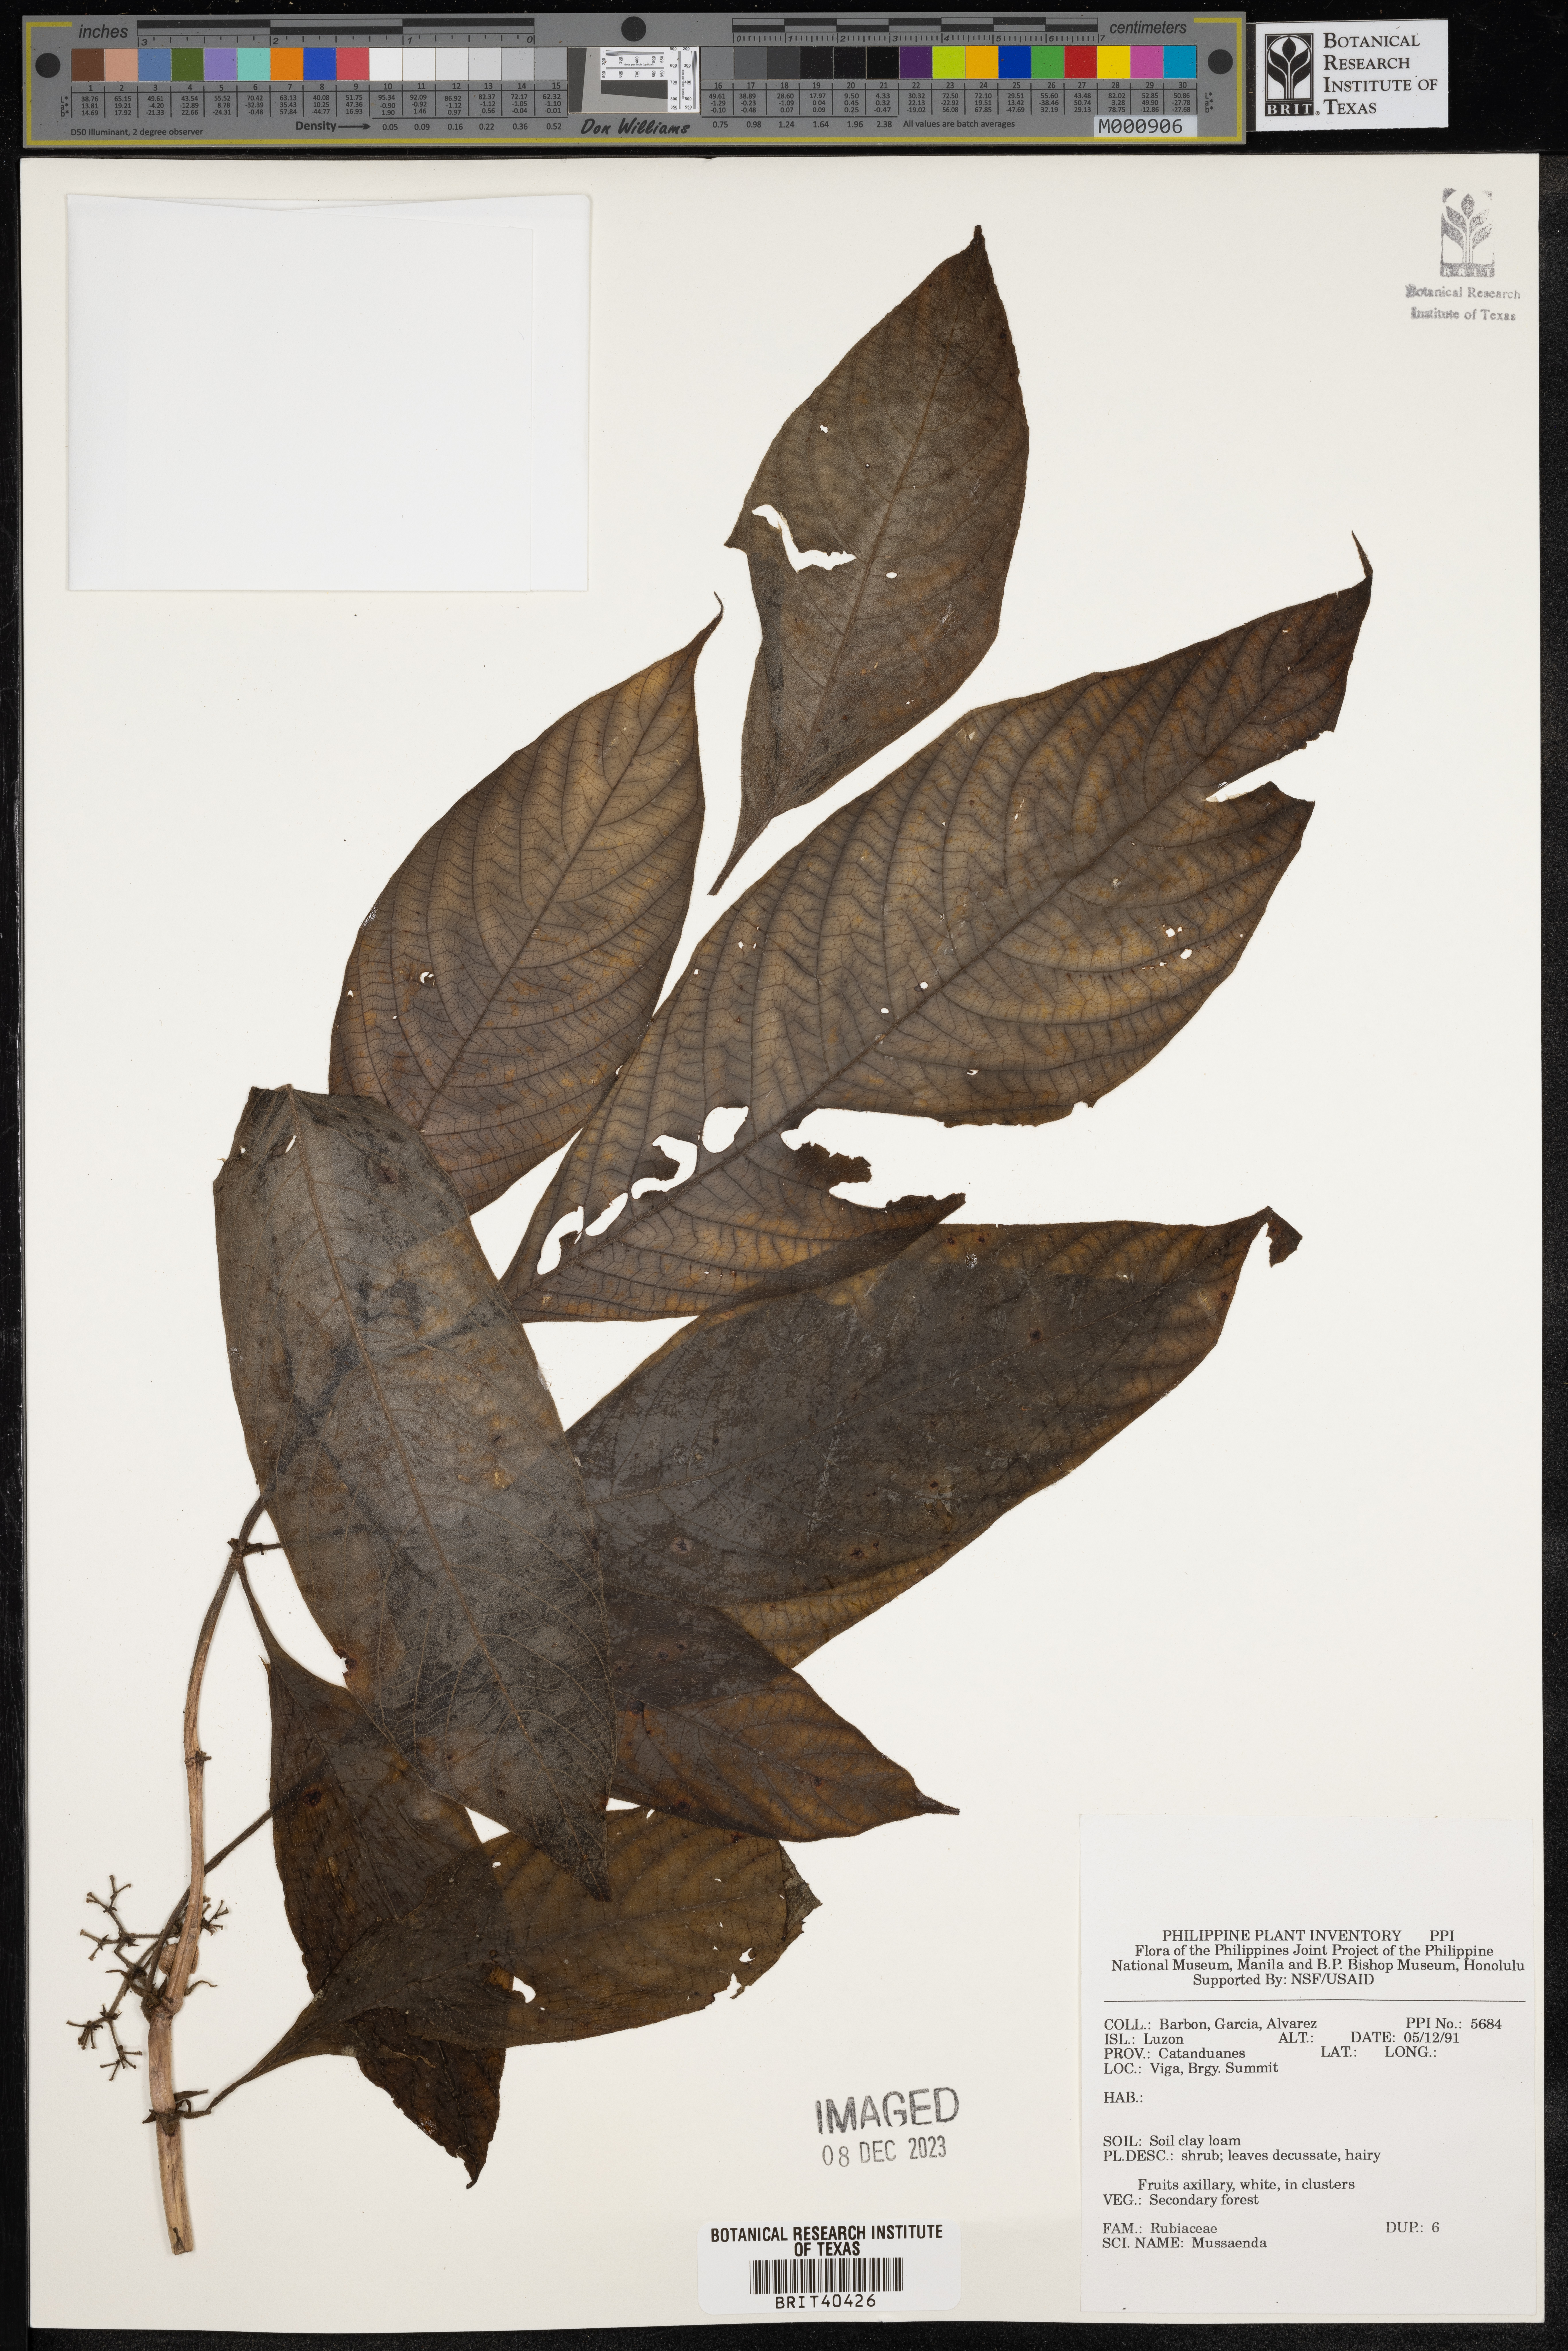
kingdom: Plantae
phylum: Tracheophyta
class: Magnoliopsida
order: Gentianales
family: Rubiaceae
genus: Mussaenda
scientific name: Mussaenda
